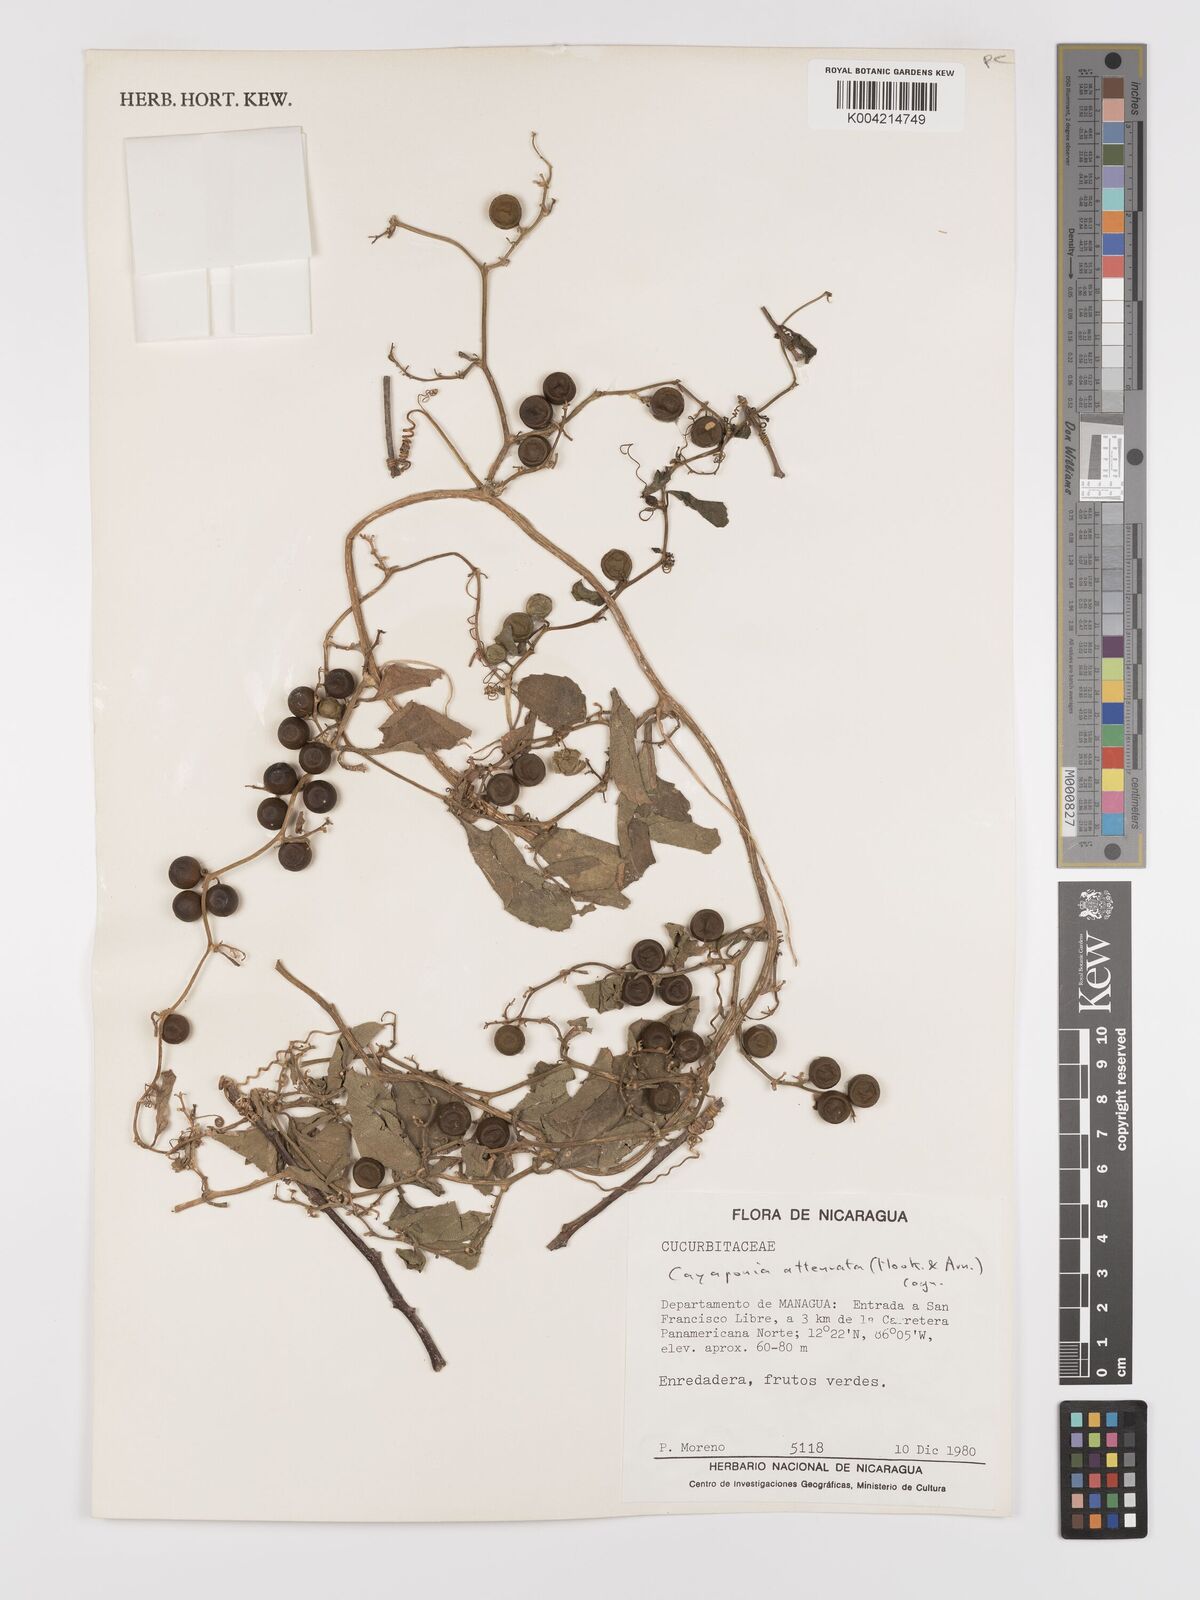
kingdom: Plantae
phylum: Tracheophyta
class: Magnoliopsida
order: Cucurbitales
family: Cucurbitaceae
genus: Cayaponia
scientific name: Cayaponia attenuata
